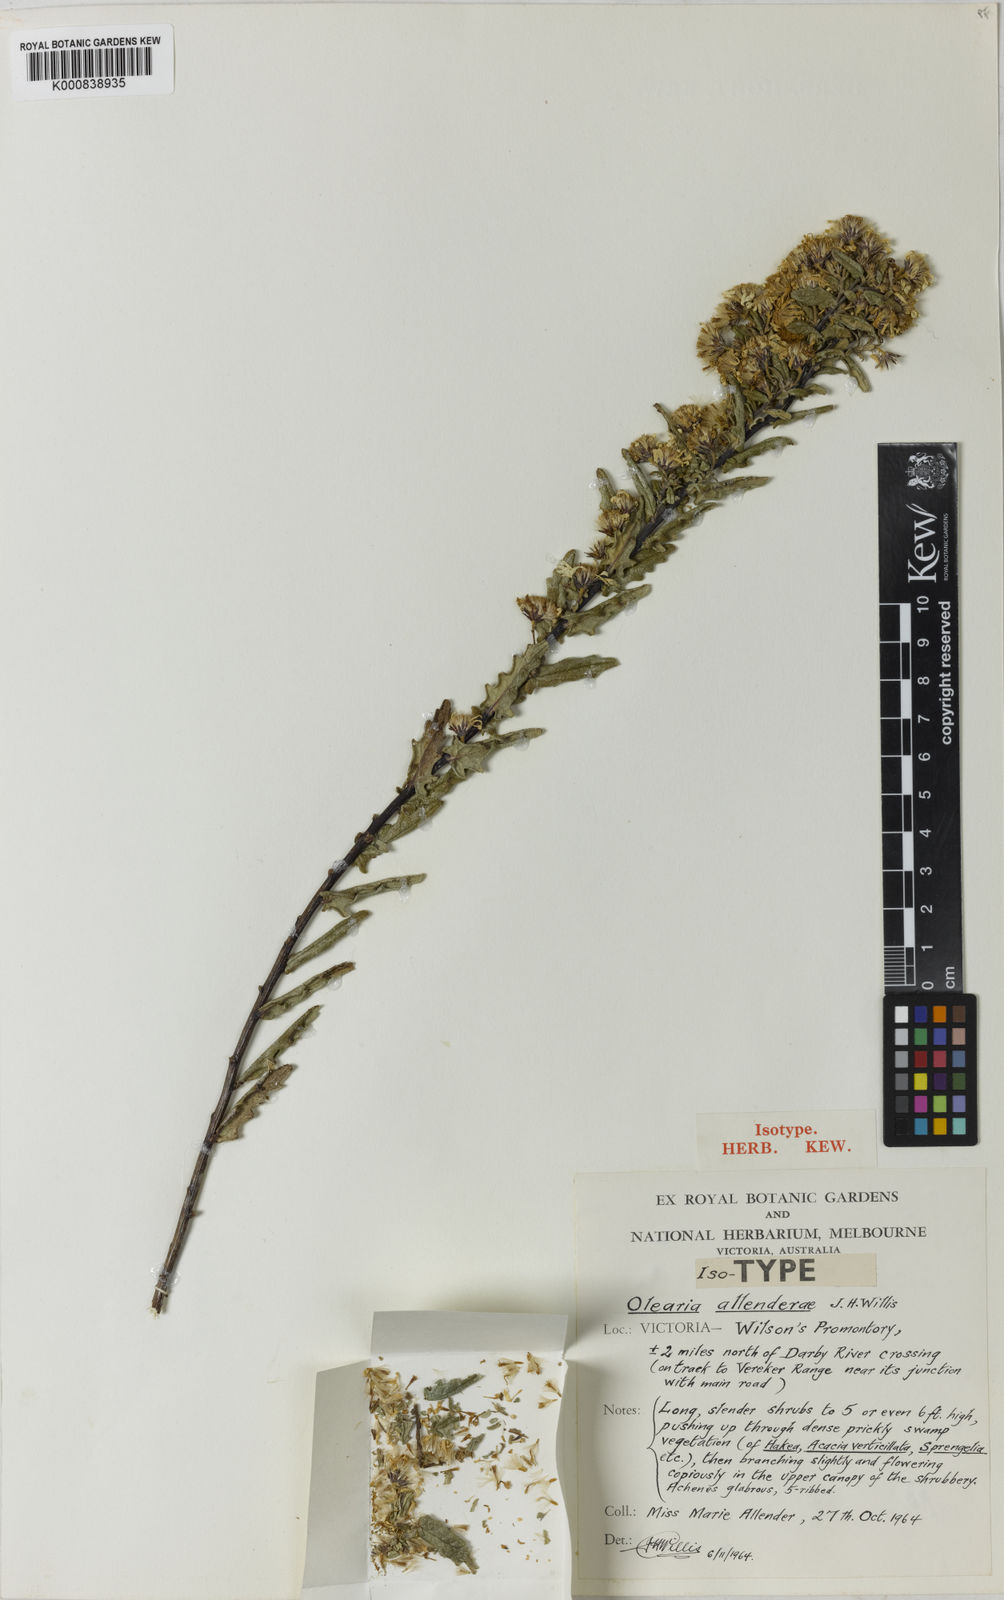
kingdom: Plantae
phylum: Tracheophyta
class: Magnoliopsida
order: Asterales
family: Asteraceae
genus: Olearia
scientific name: Olearia rugosa
